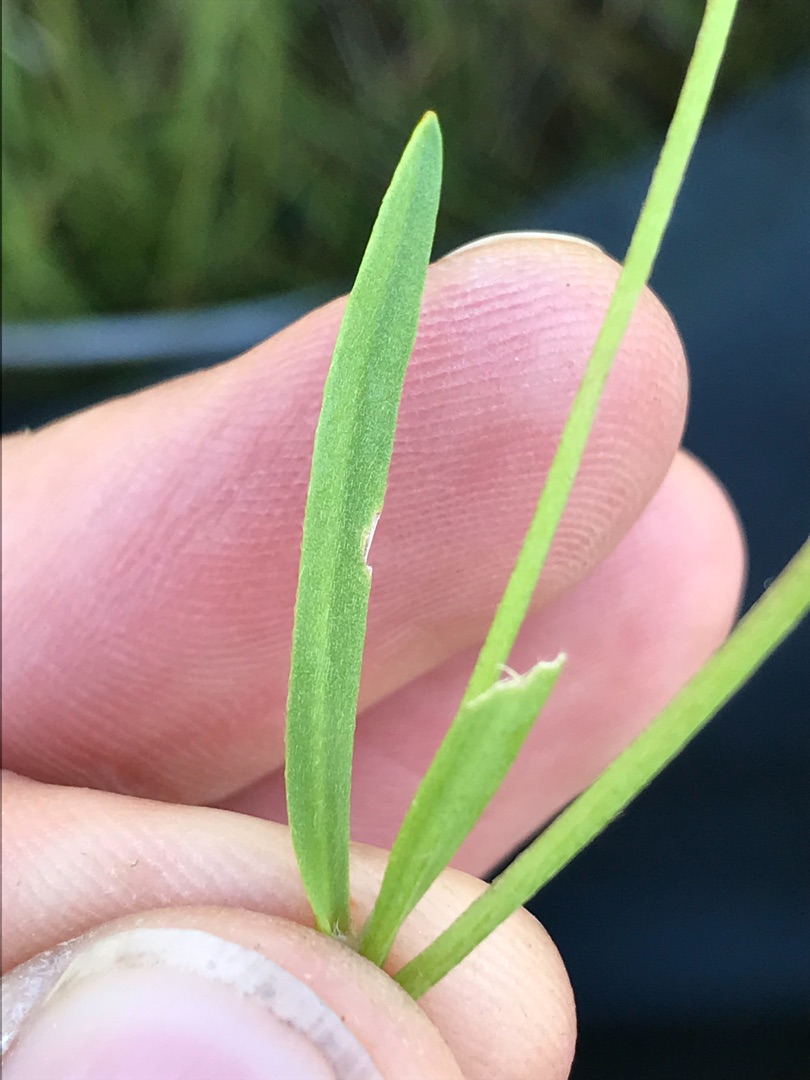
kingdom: Plantae
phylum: Tracheophyta
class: Magnoliopsida
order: Ranunculales
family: Ranunculaceae
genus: Ranunculus
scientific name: Ranunculus flammula
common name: Kær-ranunkel
